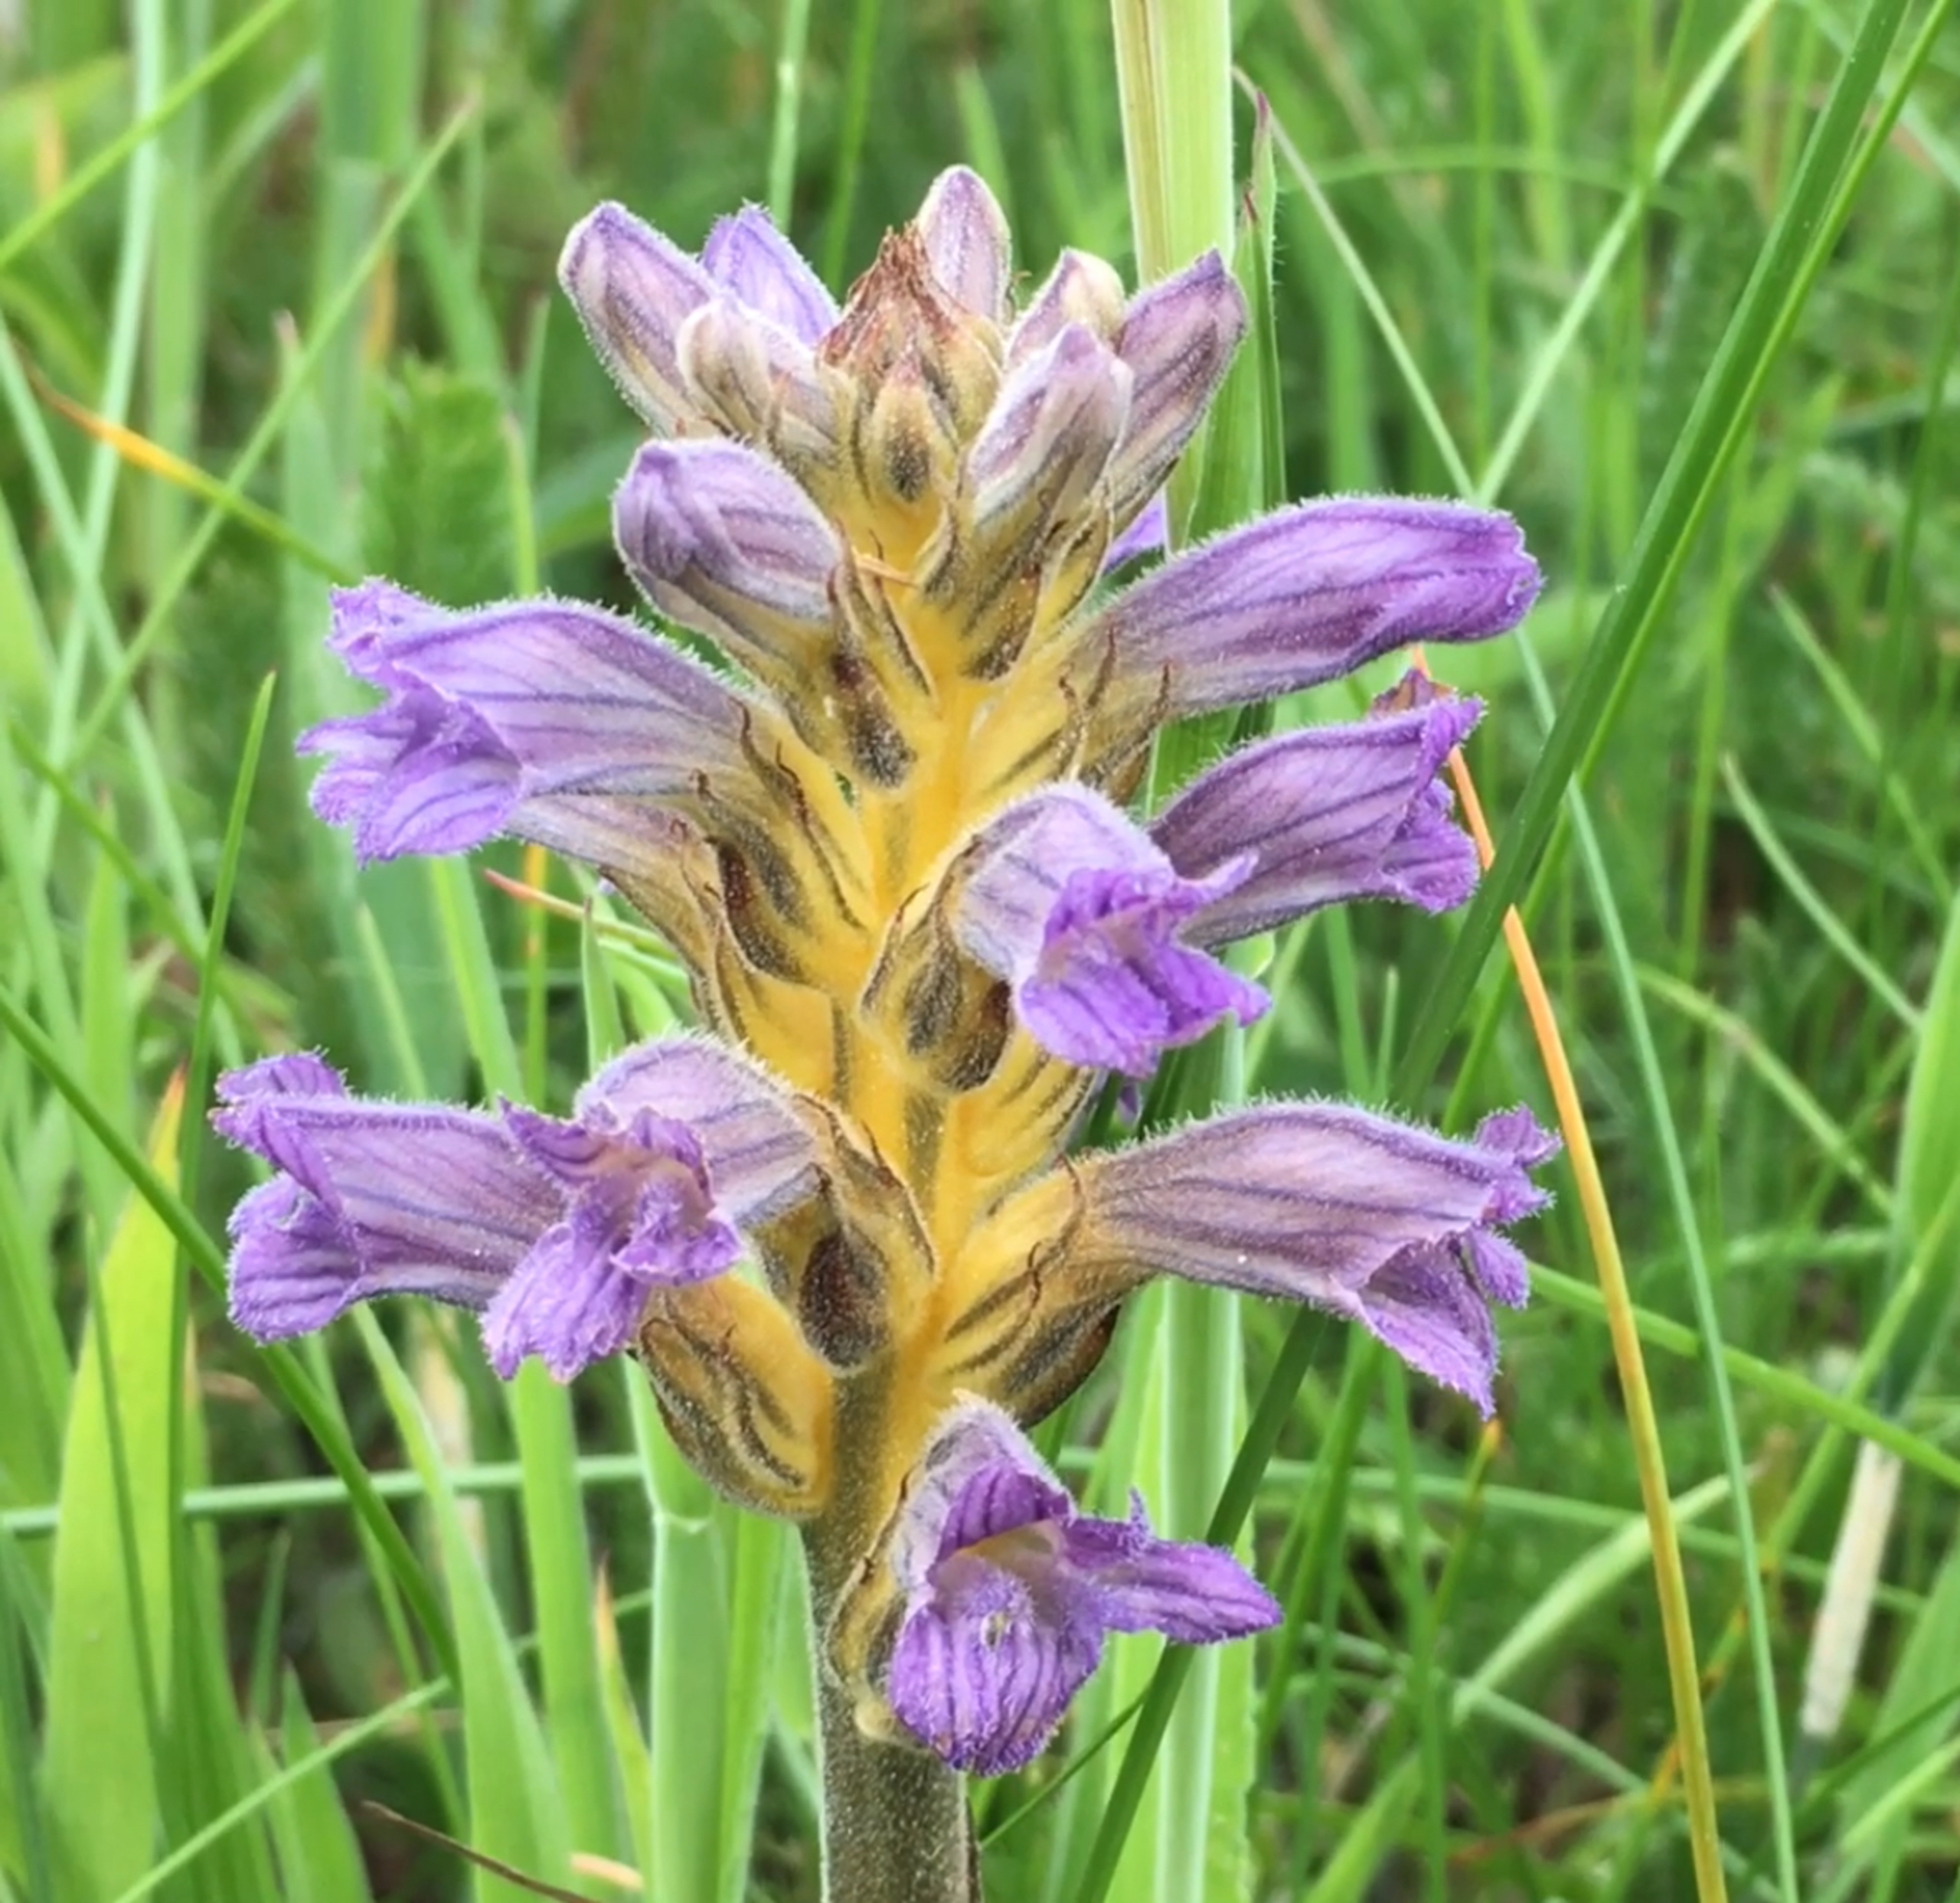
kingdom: Plantae
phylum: Tracheophyta
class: Magnoliopsida
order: Lamiales
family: Orobanchaceae
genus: Phelipanche
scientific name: Phelipanche purpurea
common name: Røllike-gyvelkvæler
